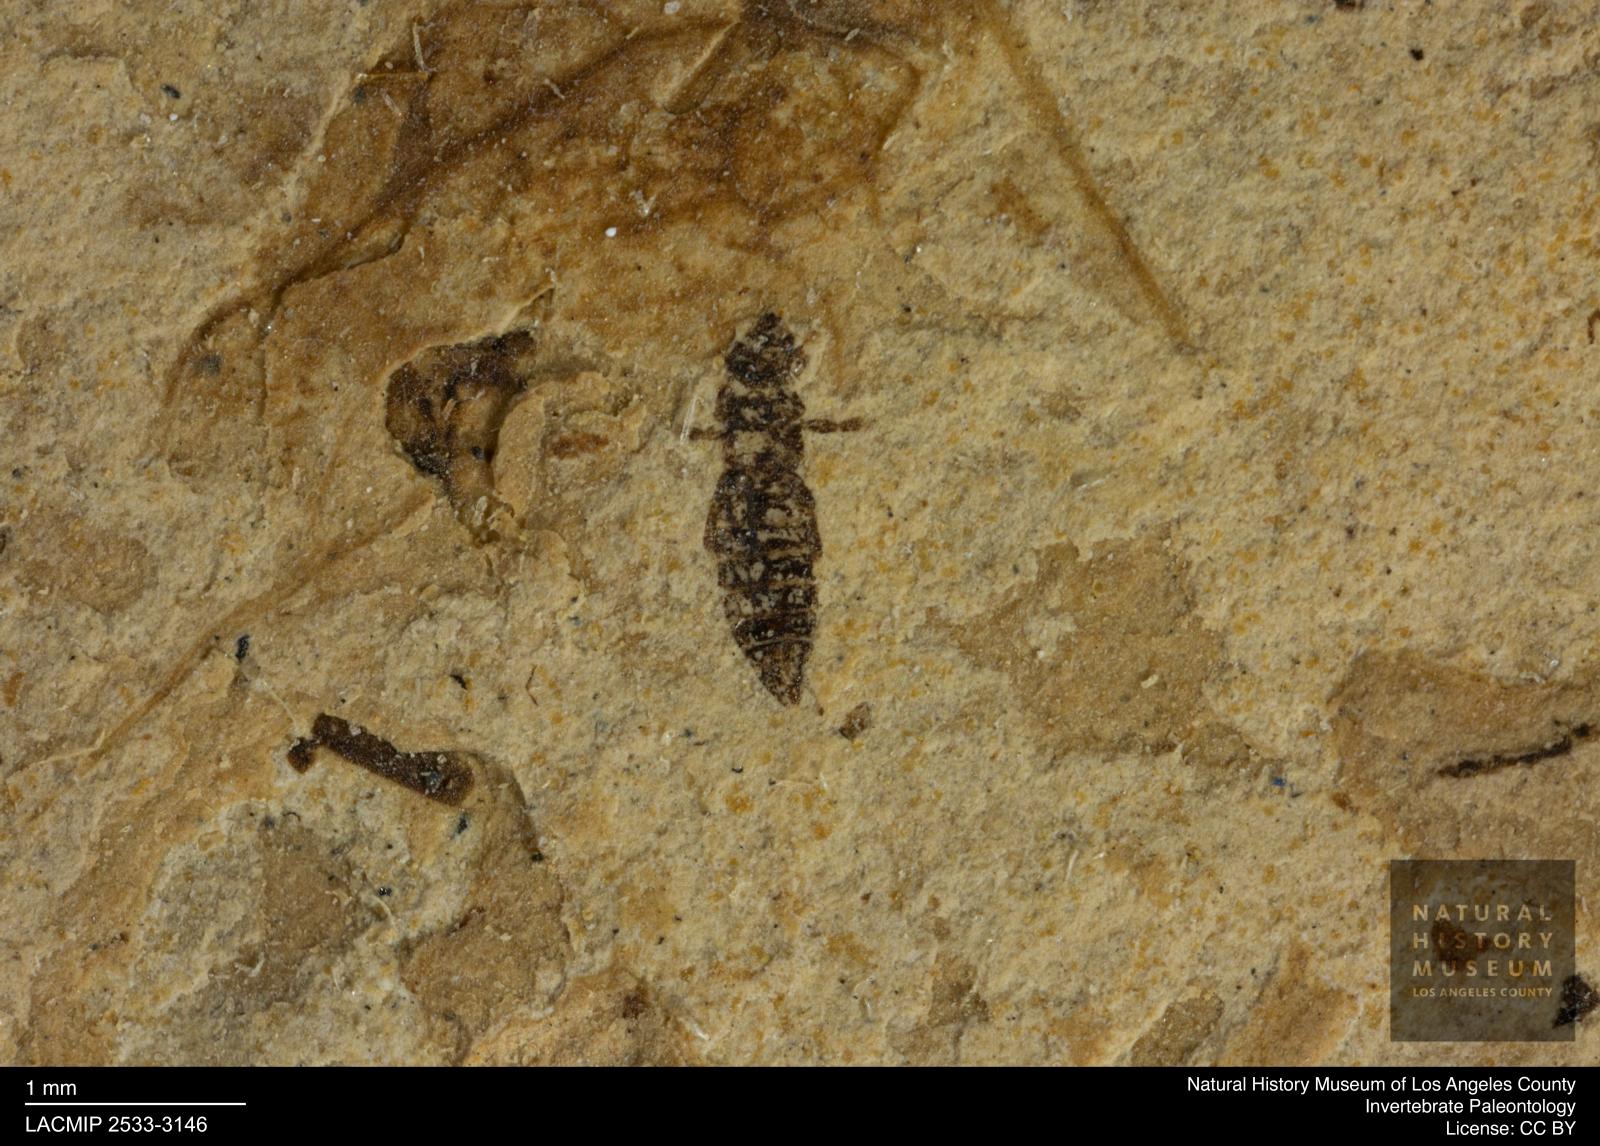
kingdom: Animalia
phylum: Arthropoda
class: Insecta
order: Thysanoptera
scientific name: Thysanoptera
